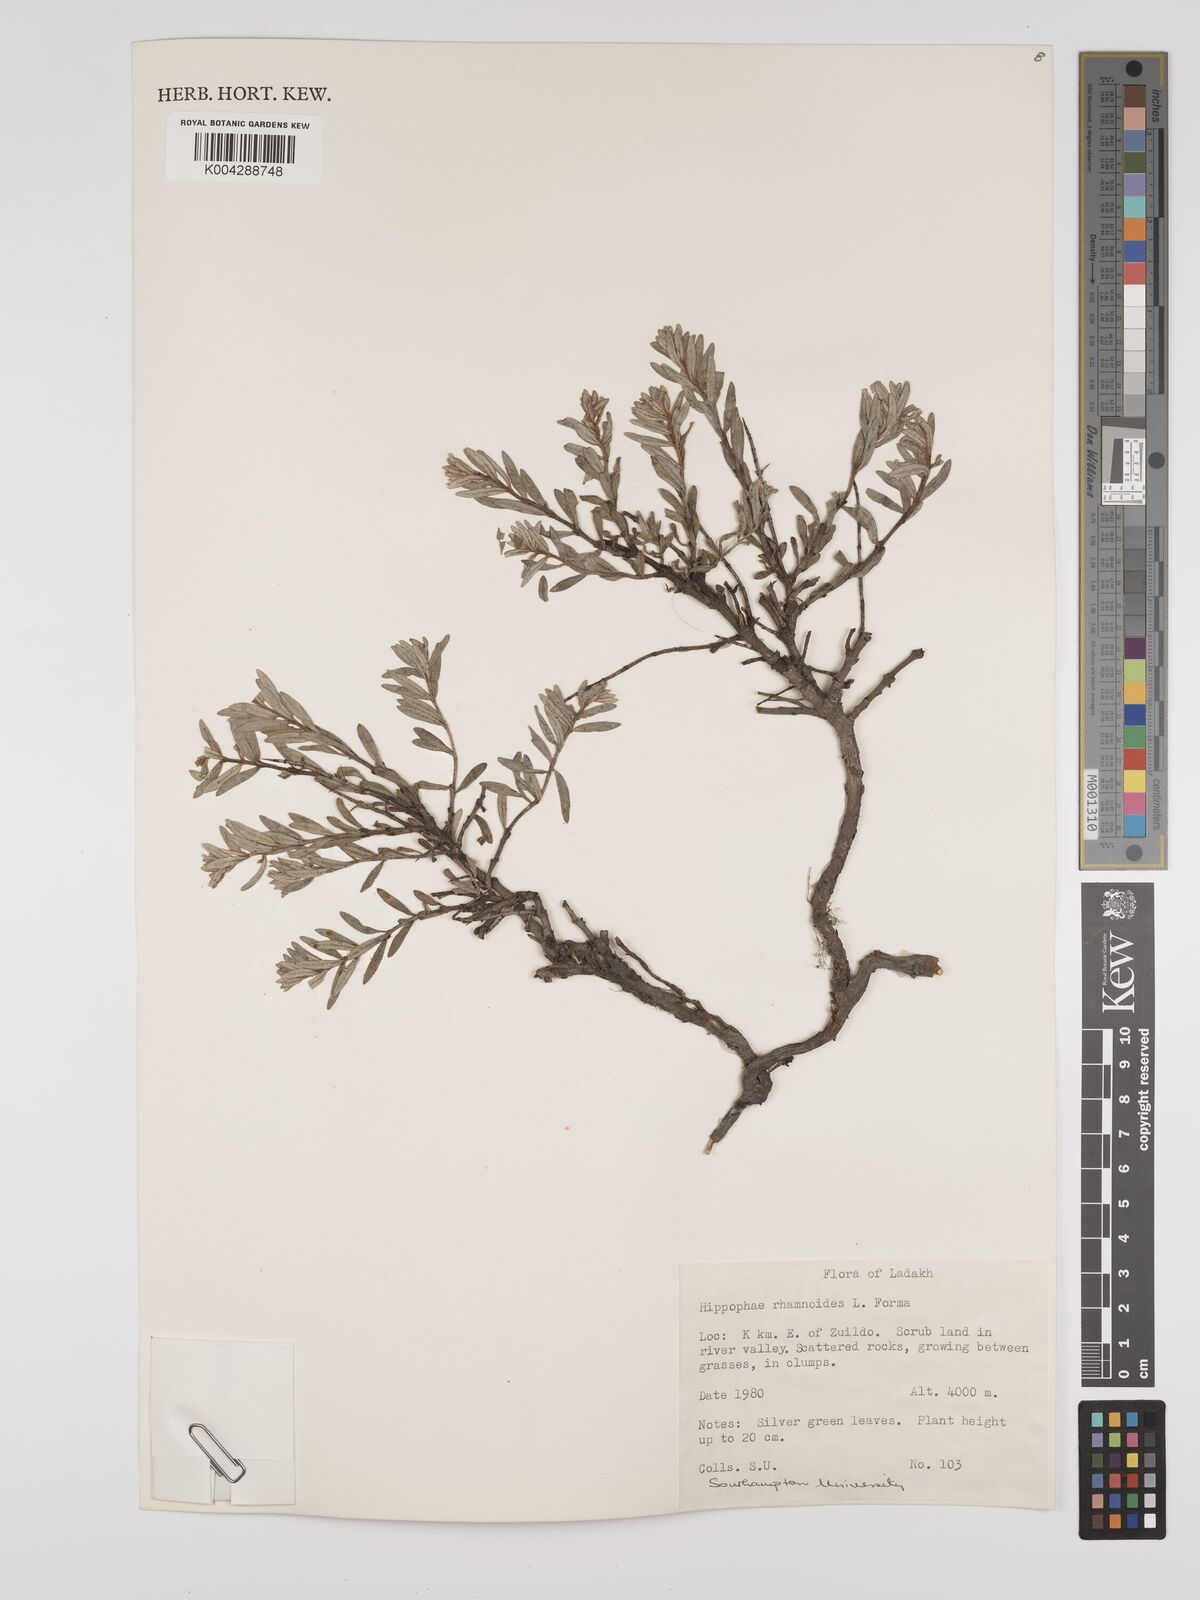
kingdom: Plantae
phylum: Tracheophyta
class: Magnoliopsida
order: Rosales
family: Elaeagnaceae
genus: Hippophae
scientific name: Hippophae rhamnoides
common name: Sea-buckthorn
